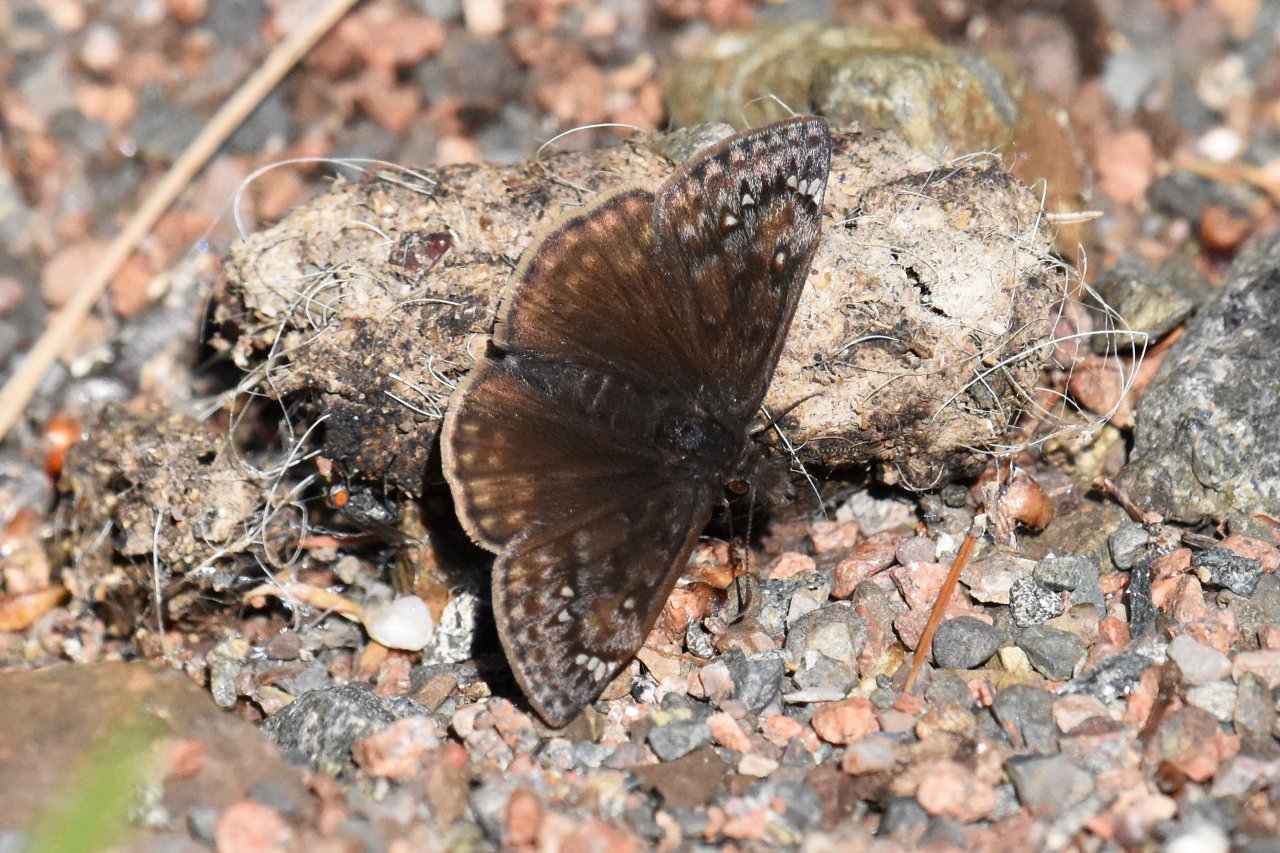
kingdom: Animalia
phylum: Arthropoda
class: Insecta
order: Lepidoptera
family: Hesperiidae
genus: Gesta
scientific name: Gesta
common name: Juvenal's Duskywing
